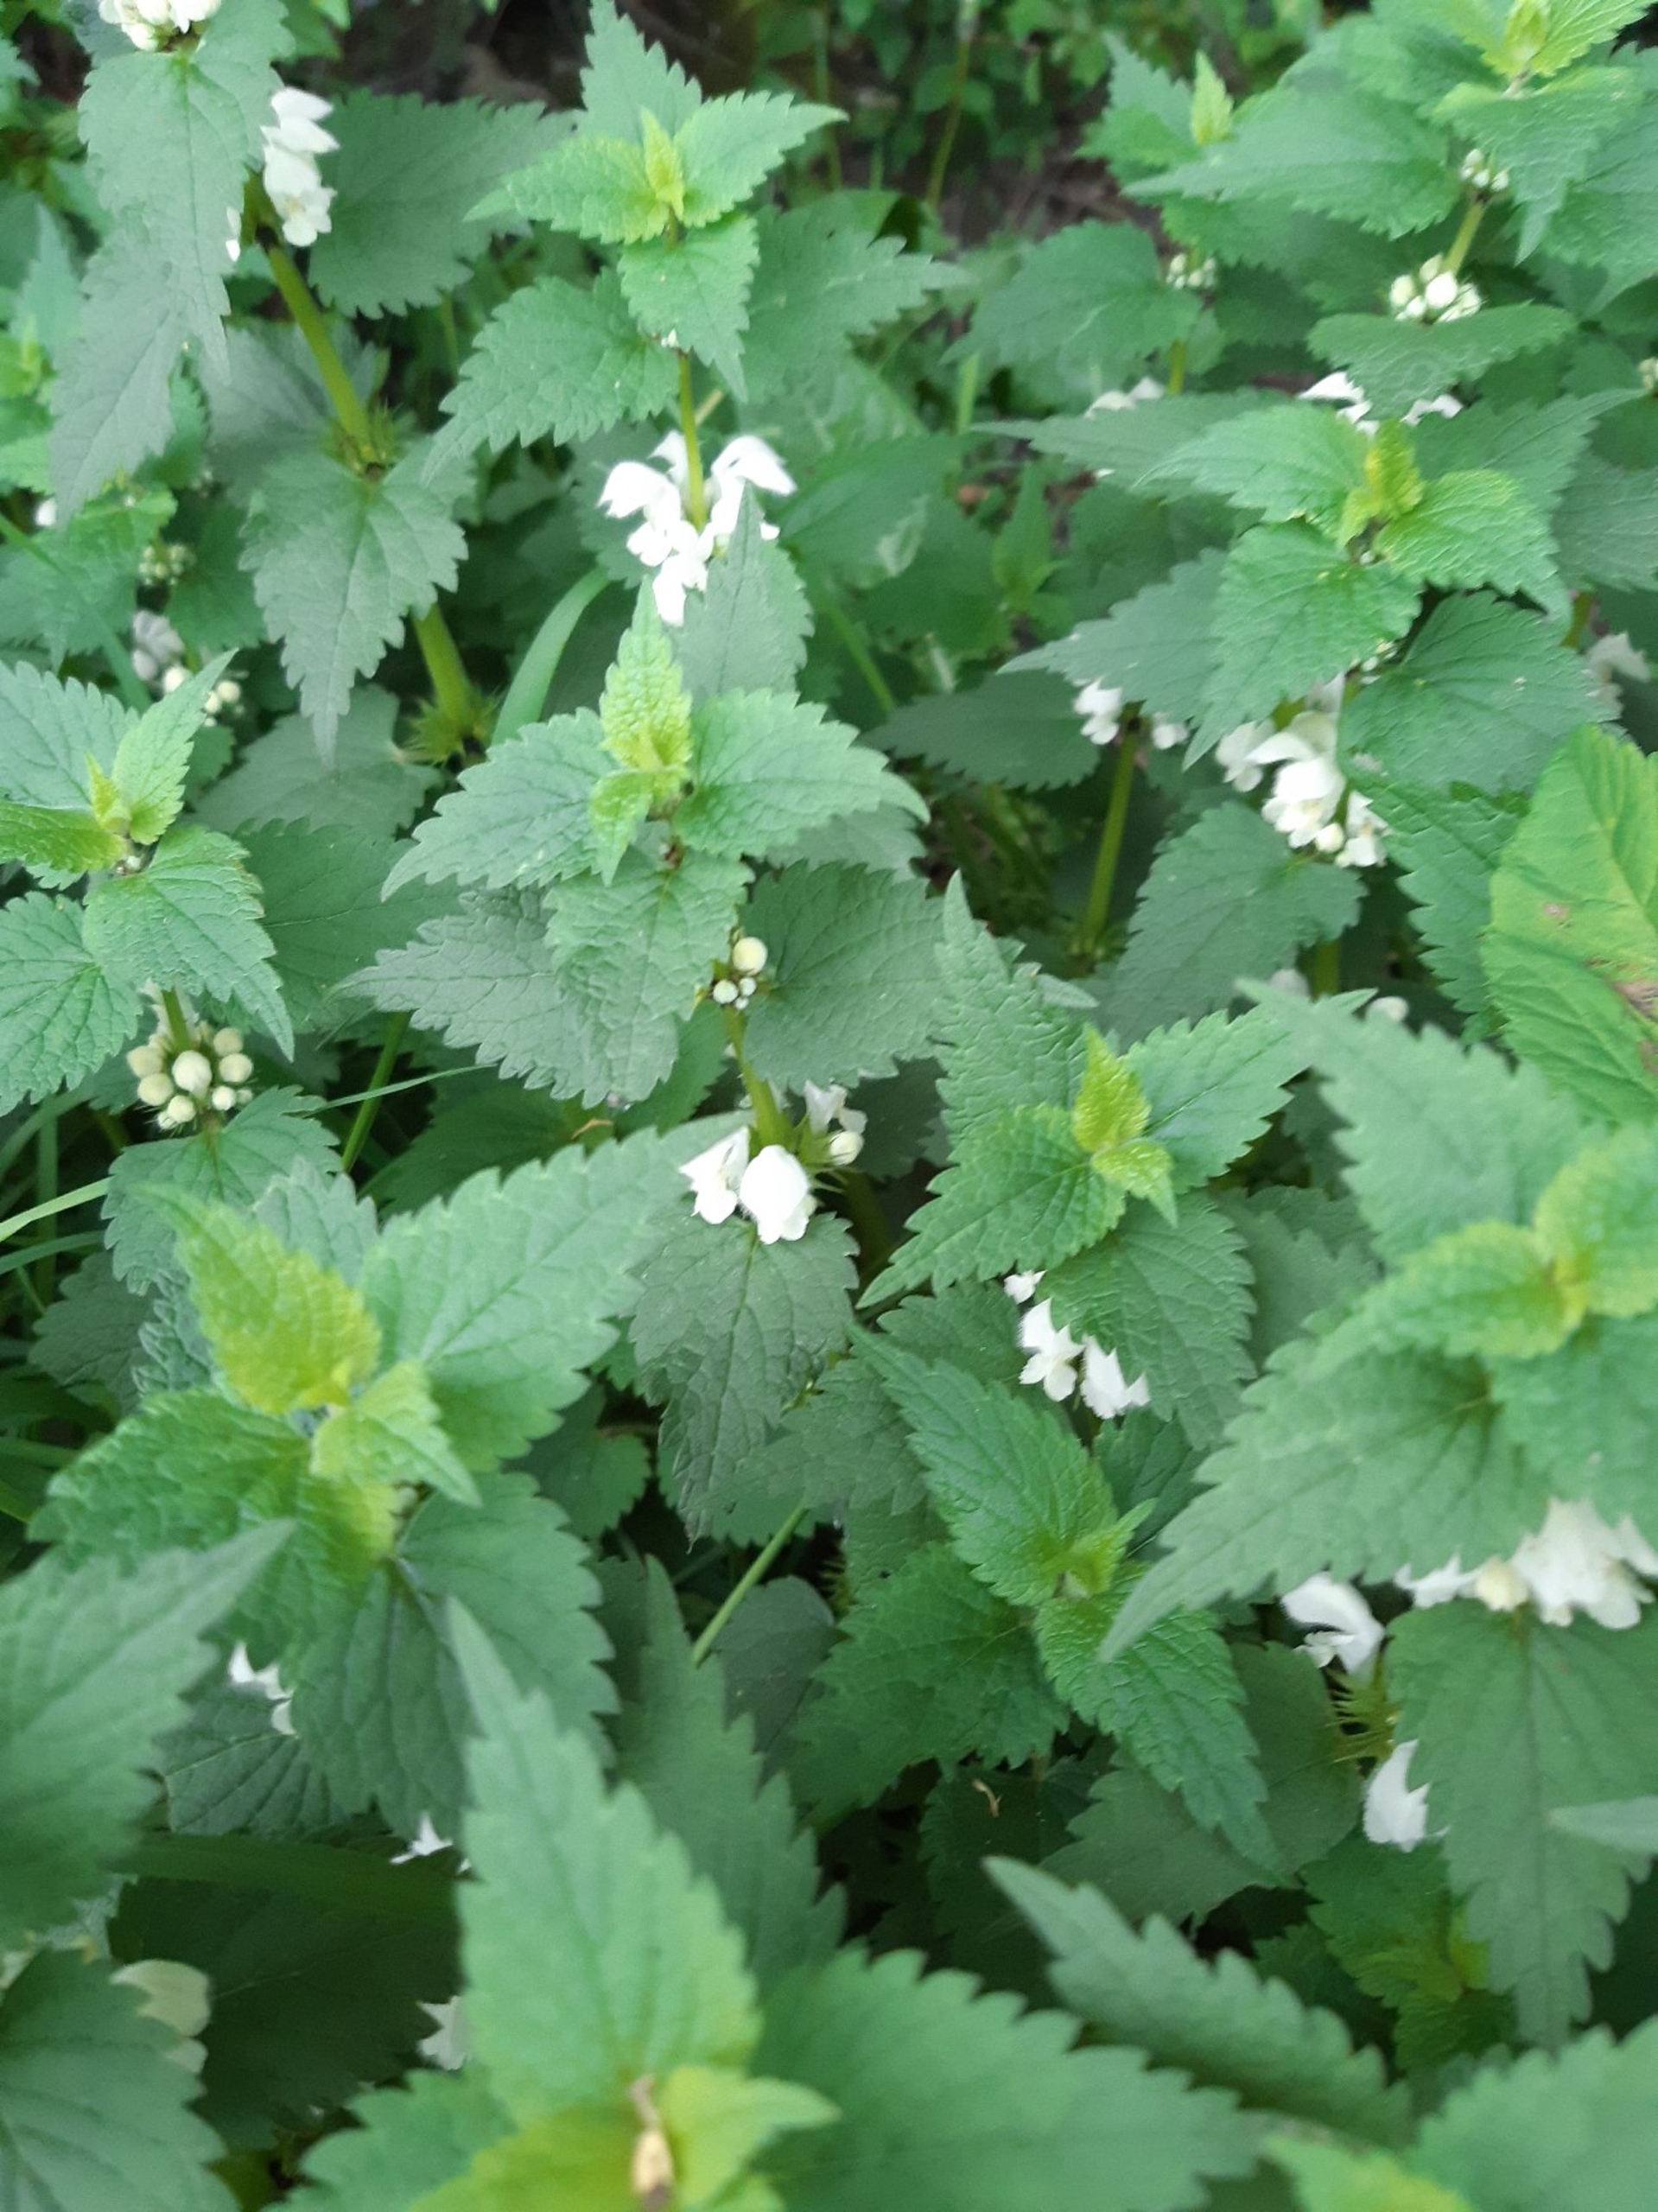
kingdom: Plantae
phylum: Tracheophyta
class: Magnoliopsida
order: Lamiales
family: Lamiaceae
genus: Lamium
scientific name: Lamium album
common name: Døvnælde
